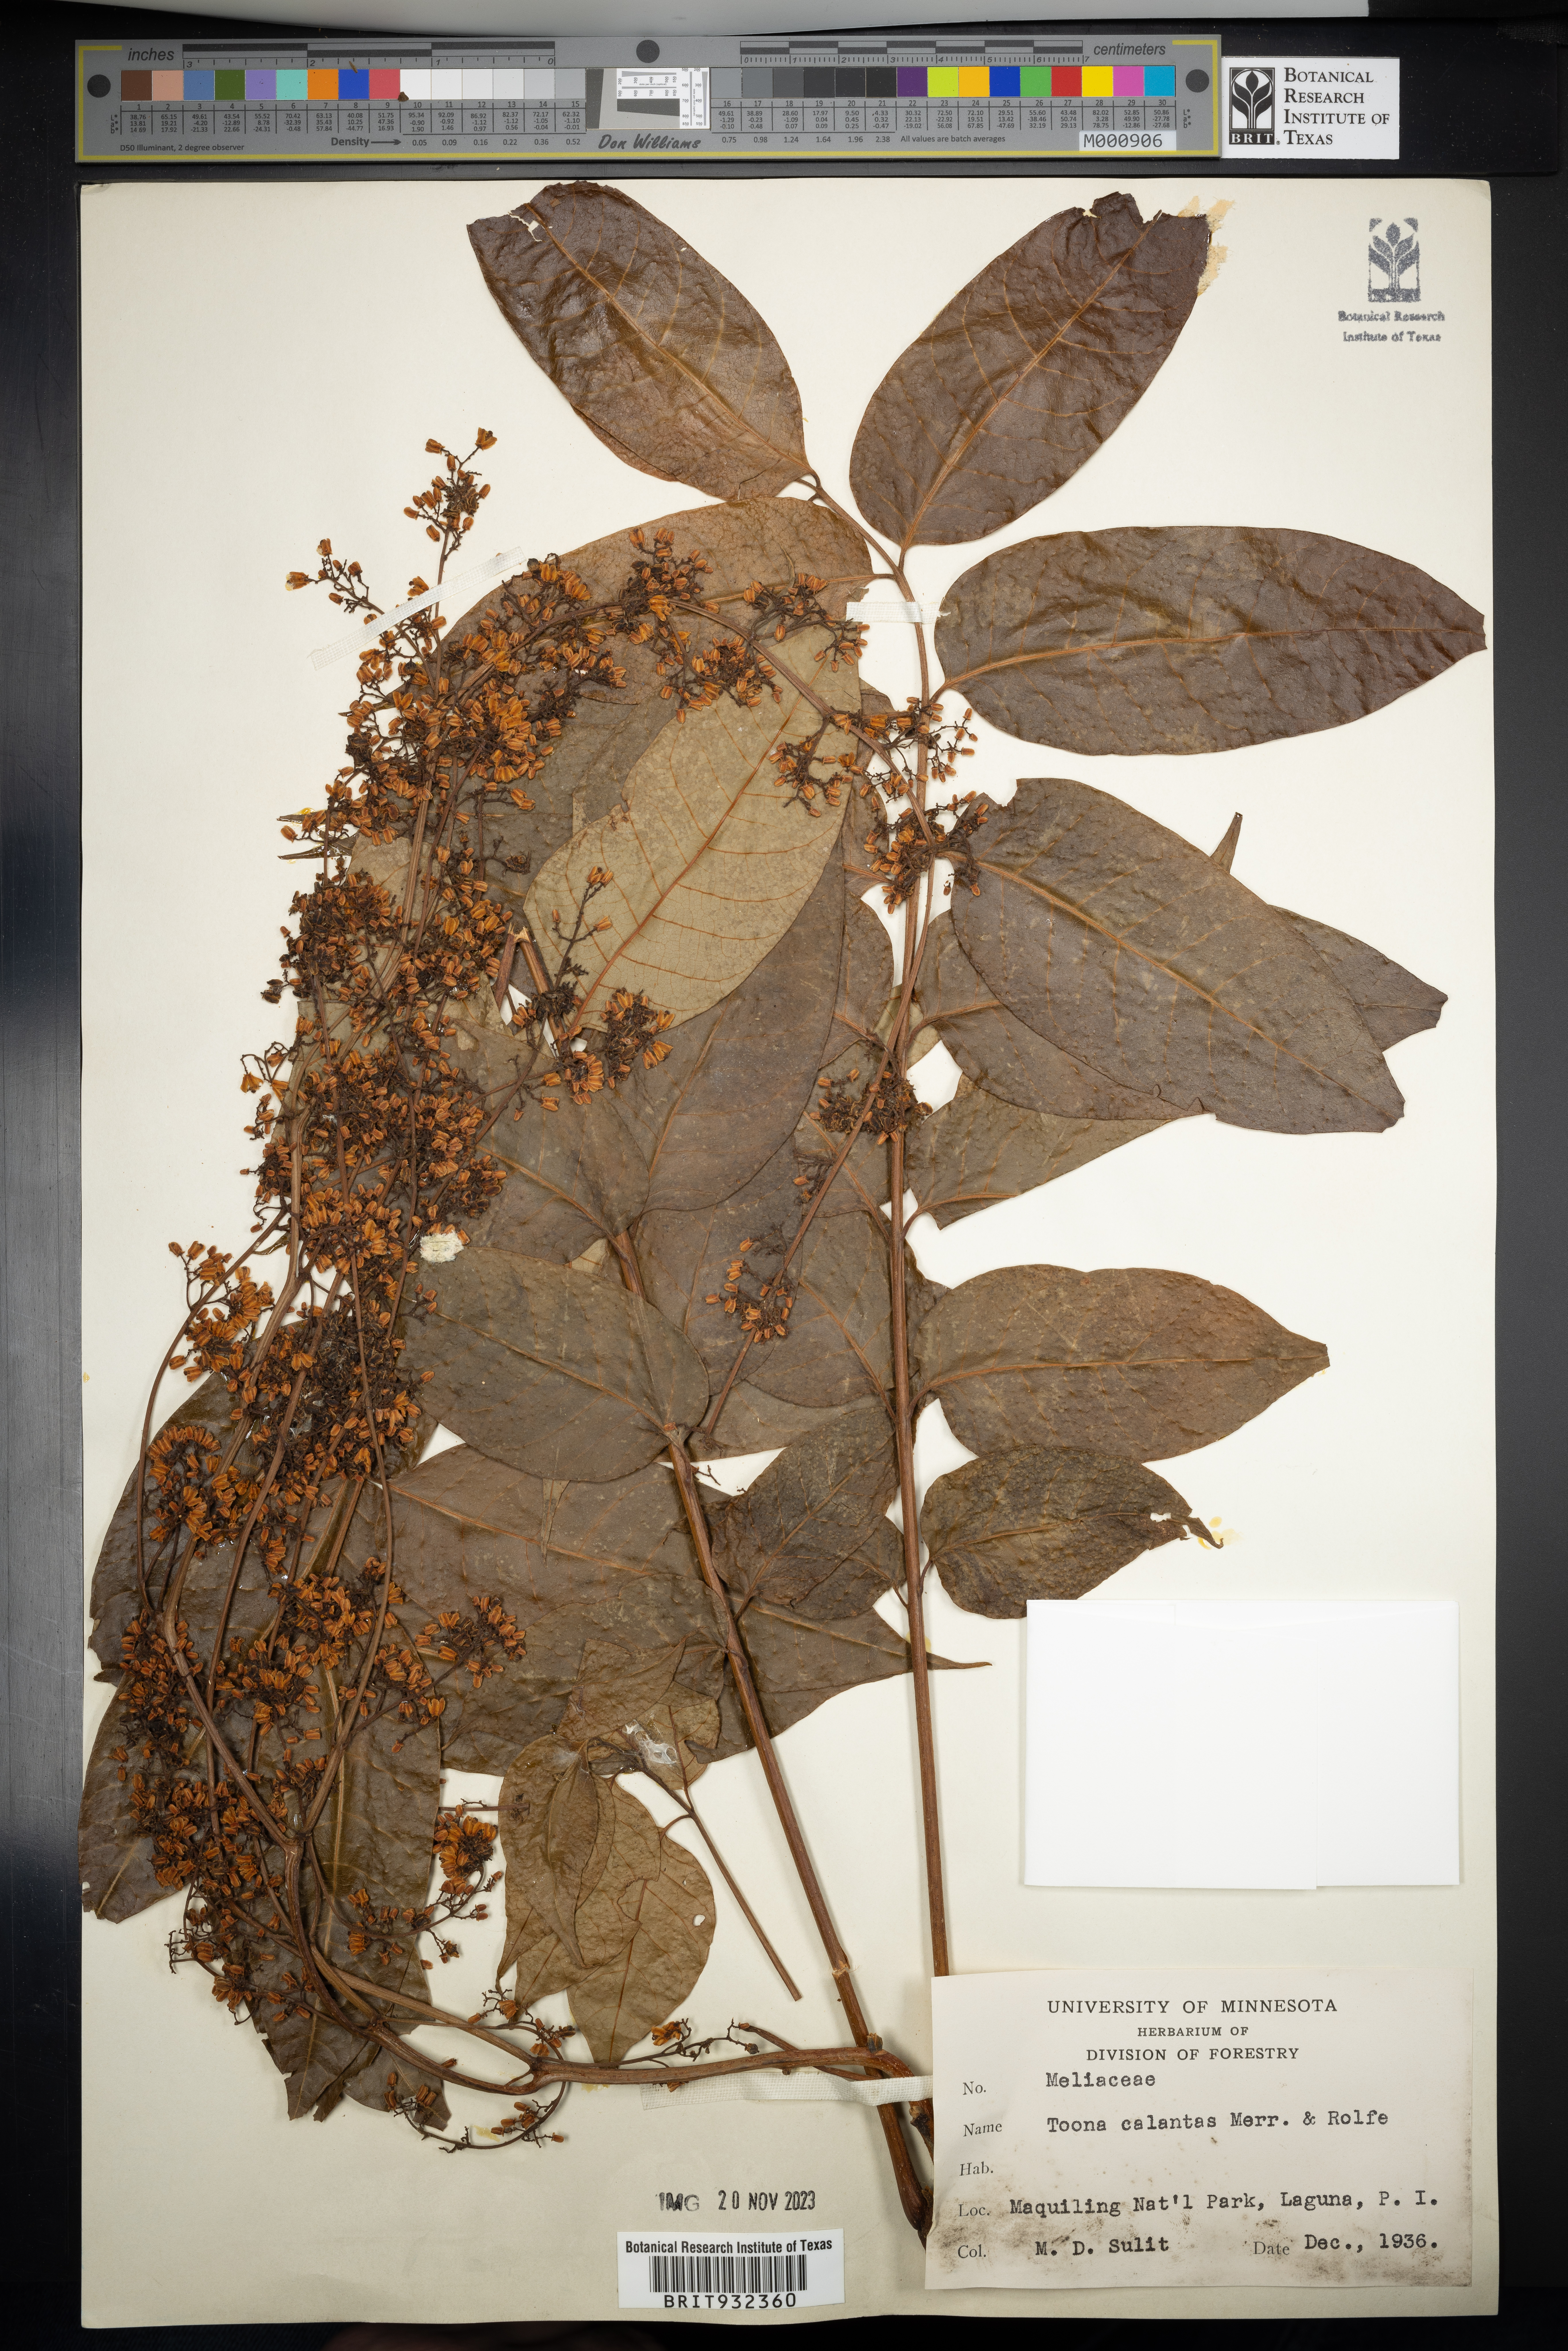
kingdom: Plantae
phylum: Tracheophyta
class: Magnoliopsida
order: Sapindales
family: Meliaceae
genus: Toona
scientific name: Toona
